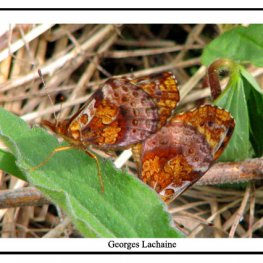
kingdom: Animalia
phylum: Arthropoda
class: Insecta
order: Lepidoptera
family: Nymphalidae
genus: Clossiana
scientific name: Clossiana toddi
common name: Meadow Fritillary
